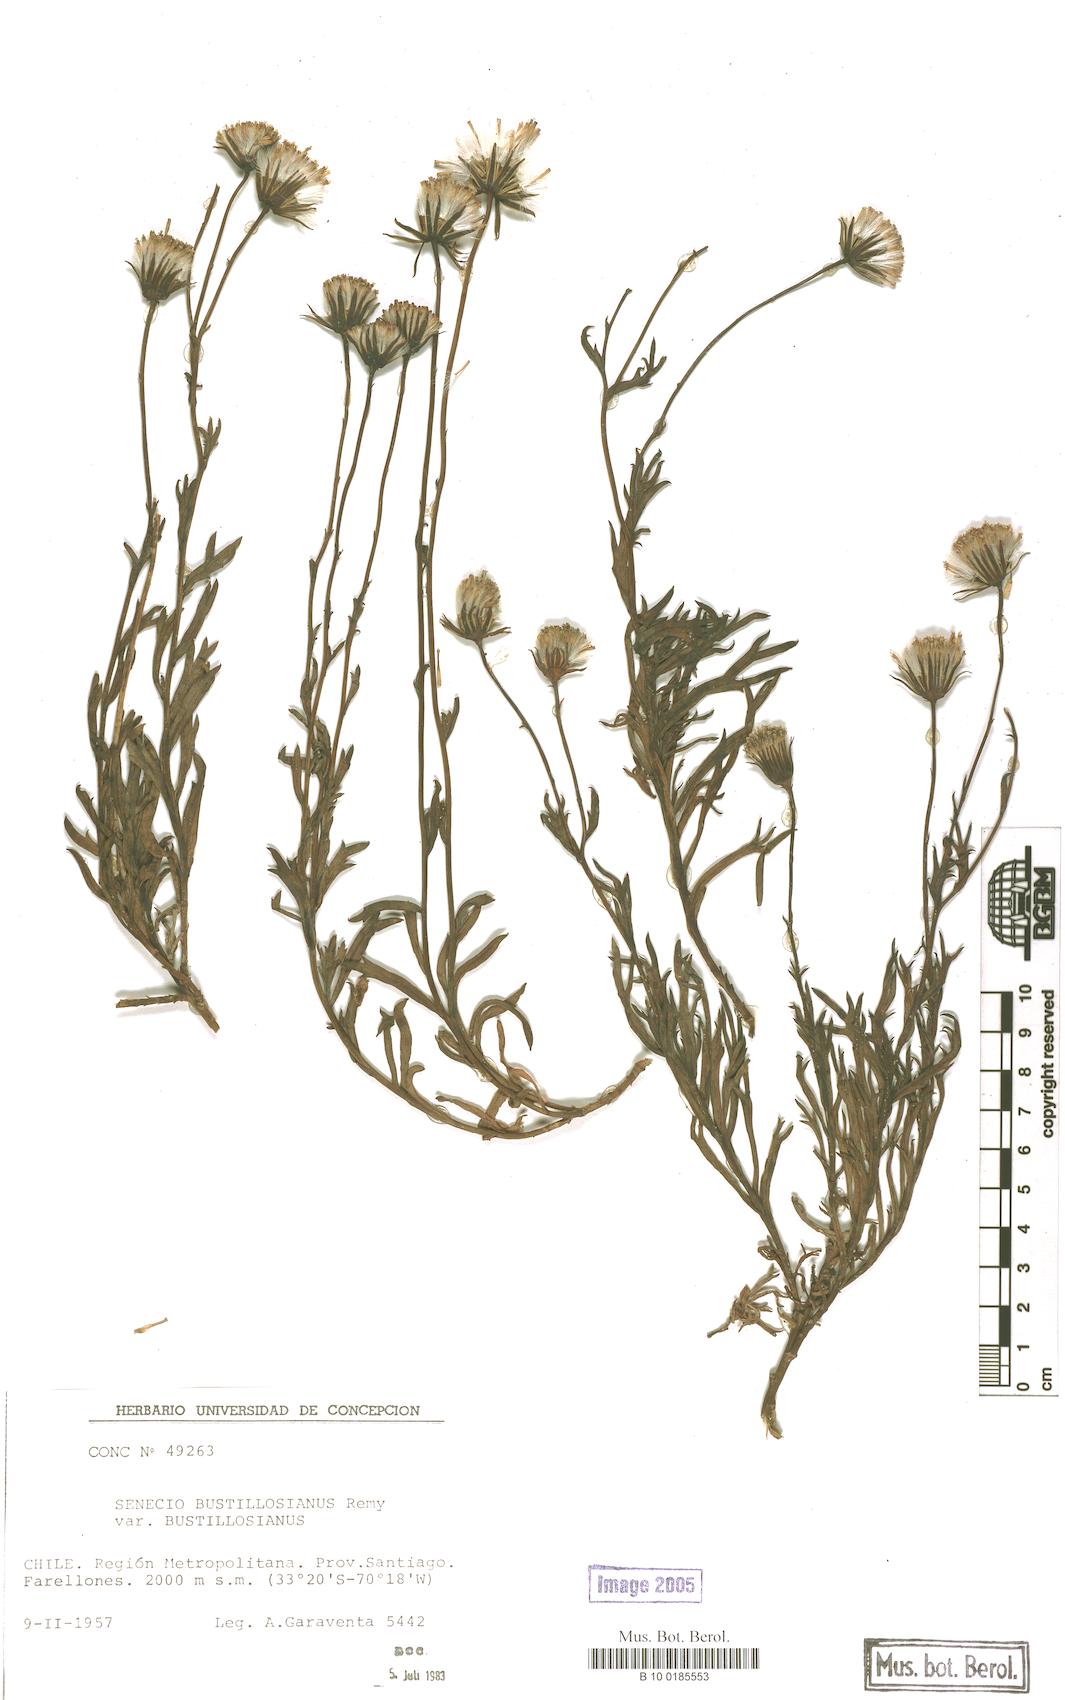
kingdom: Plantae
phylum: Tracheophyta
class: Magnoliopsida
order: Asterales
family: Asteraceae
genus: Senecio
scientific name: Senecio bustillosianus
